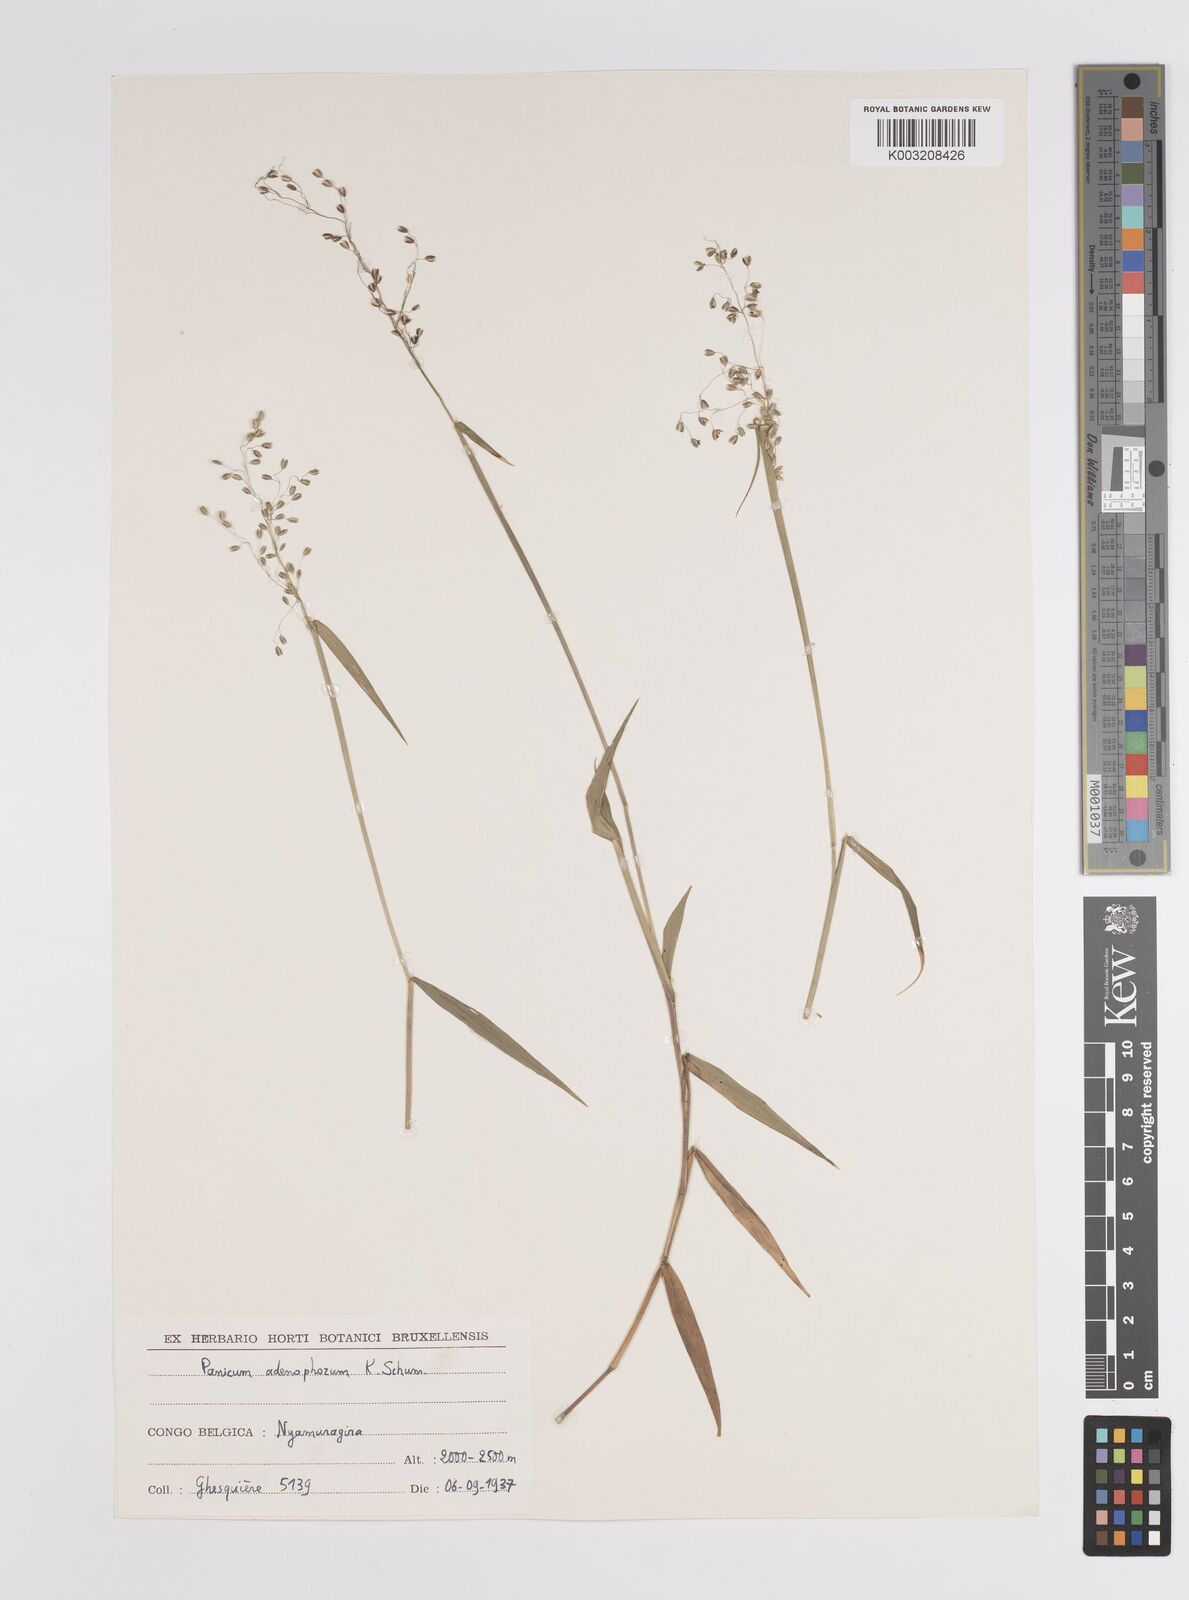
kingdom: Plantae
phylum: Tracheophyta
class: Liliopsida
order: Poales
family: Poaceae
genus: Adenochloa
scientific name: Adenochloa adenophora
